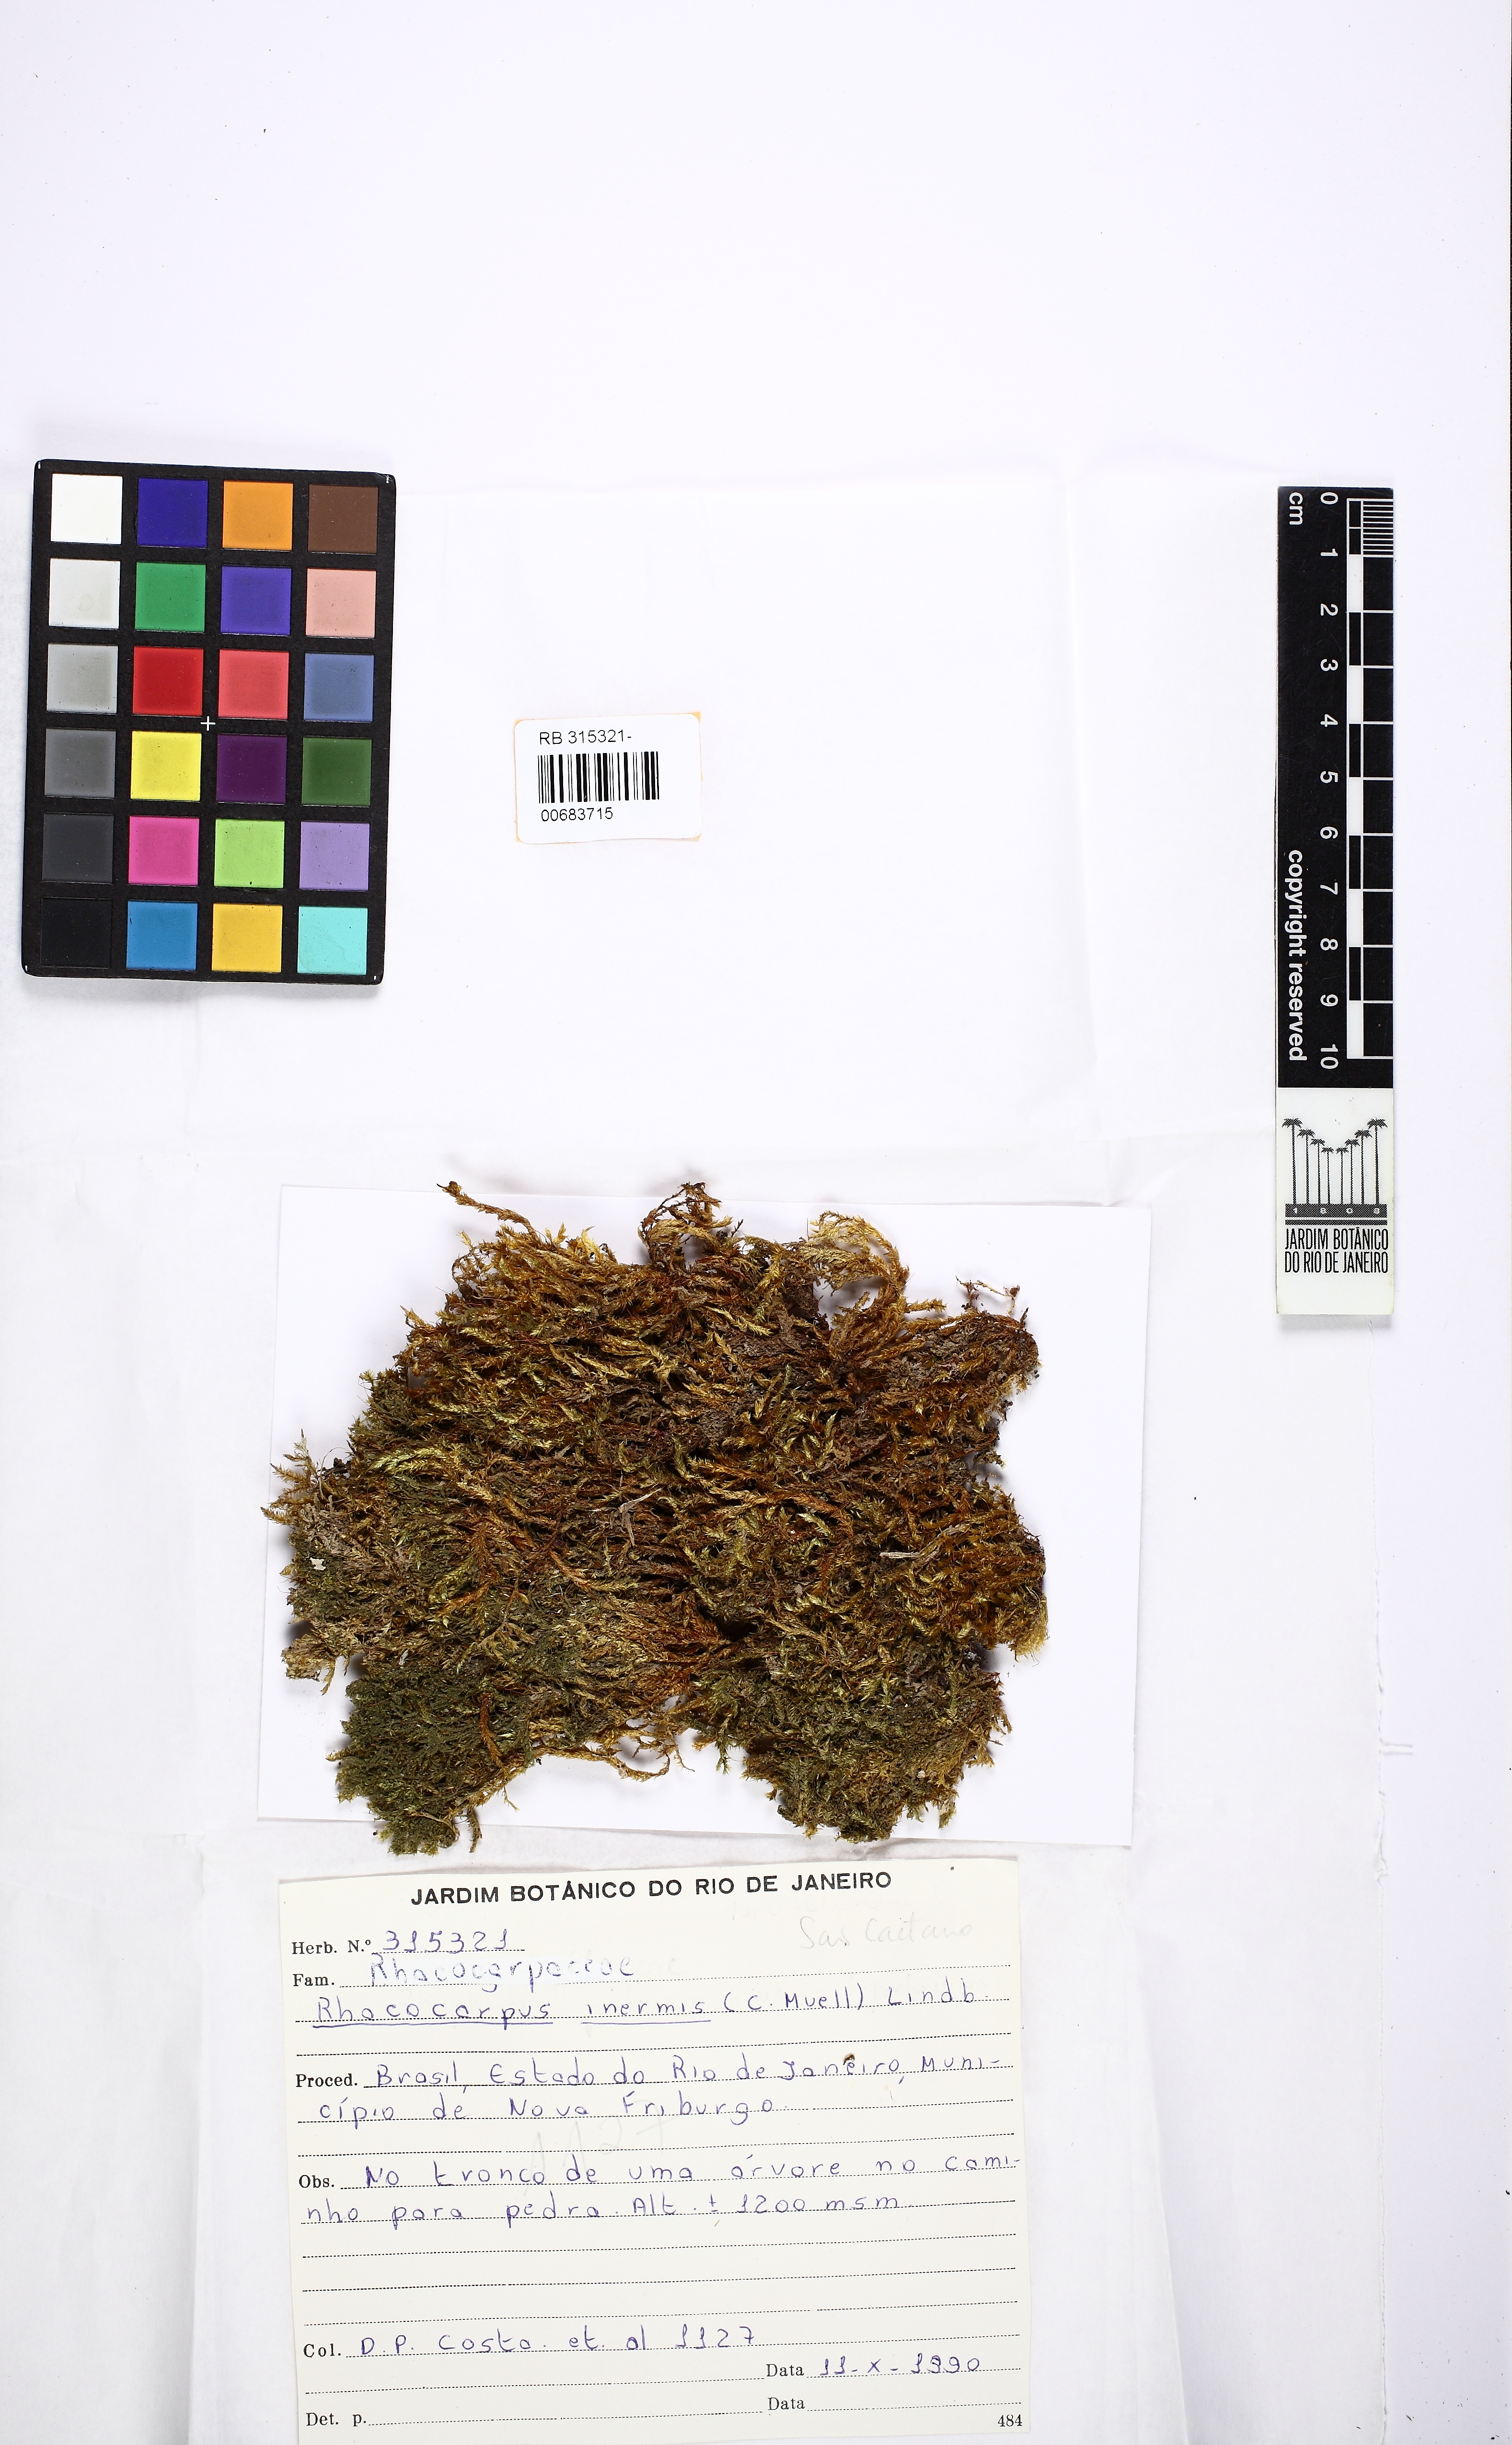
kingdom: Plantae
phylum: Bryophyta
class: Bryopsida
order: Hedwigiales
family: Hedwigiaceae
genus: Rhacocarpus
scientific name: Rhacocarpus inermis
